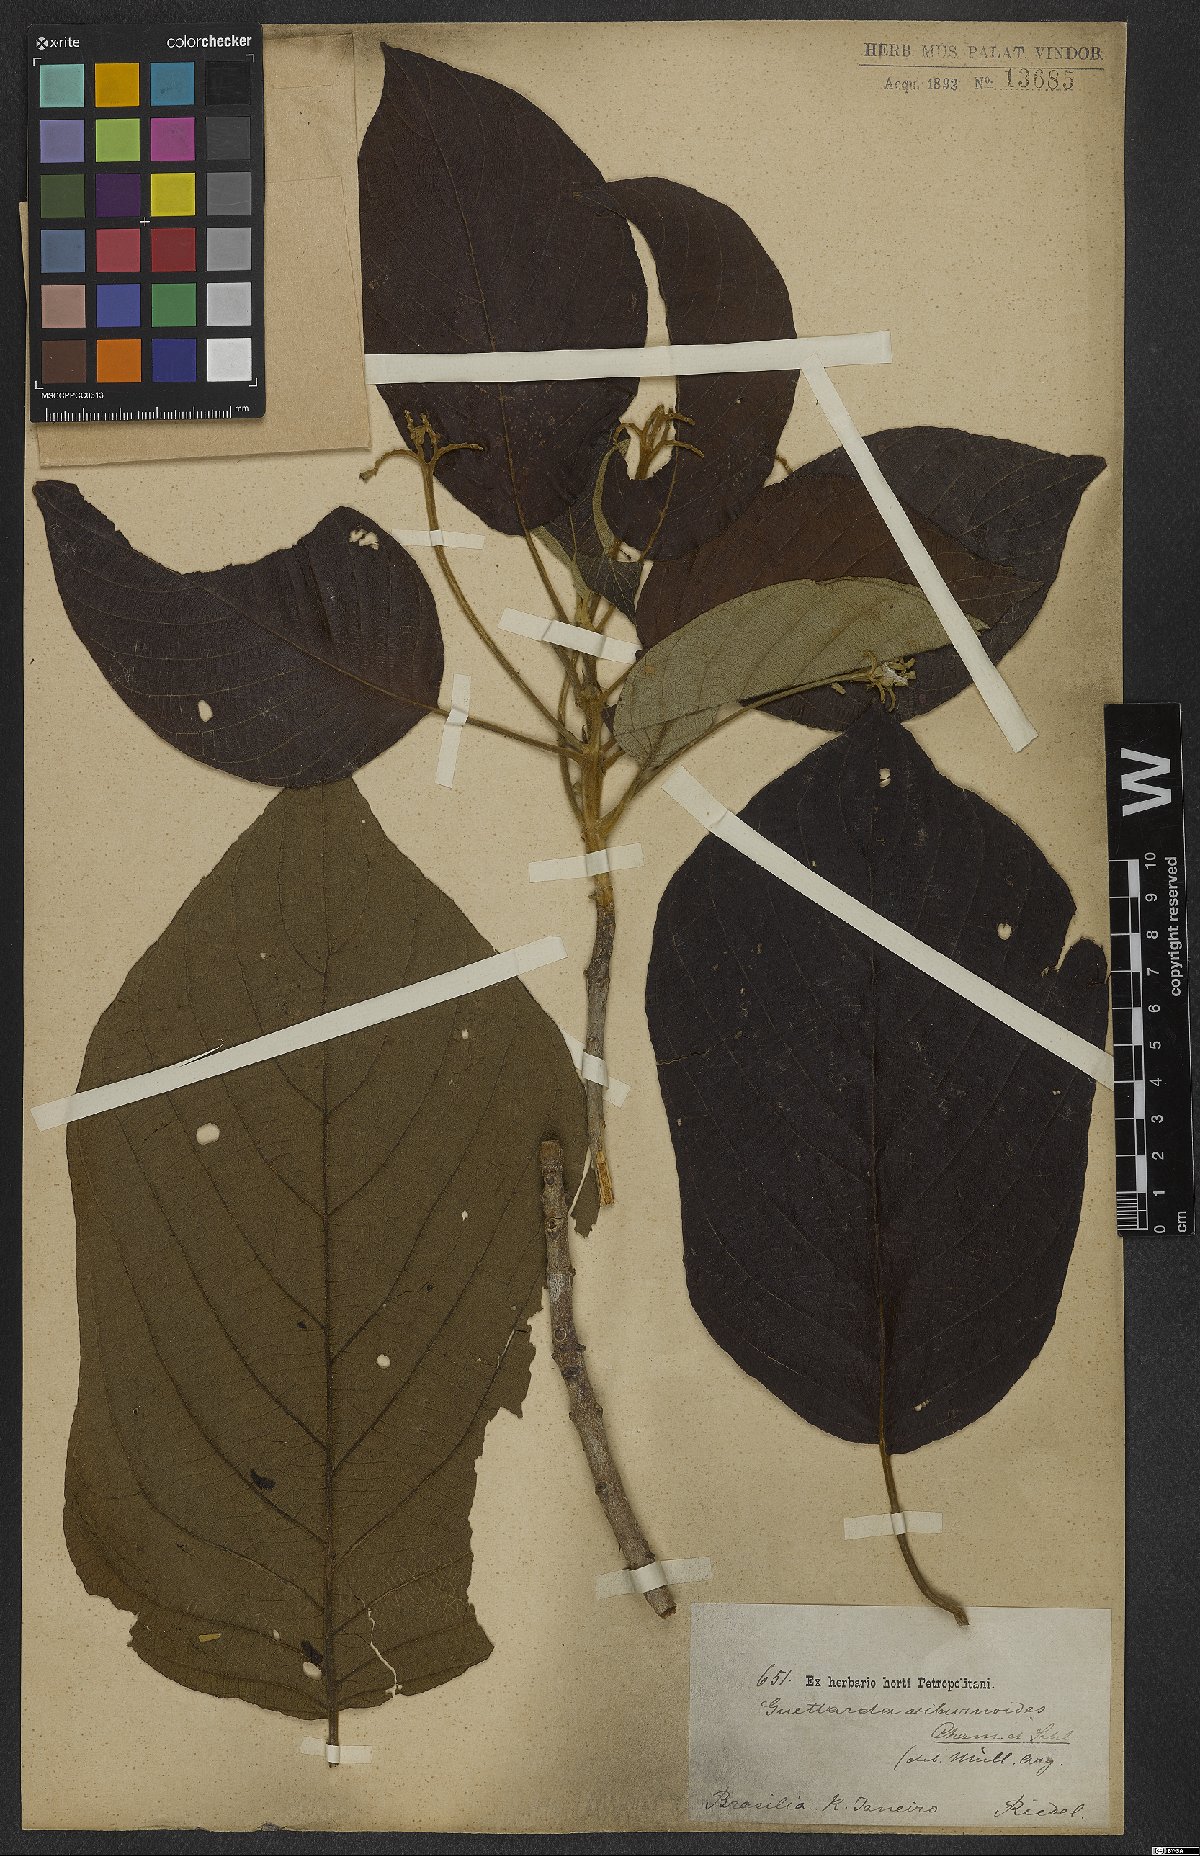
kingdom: Plantae
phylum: Tracheophyta
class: Magnoliopsida
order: Gentianales
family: Rubiaceae
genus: Guettarda
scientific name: Guettarda viburnoides
